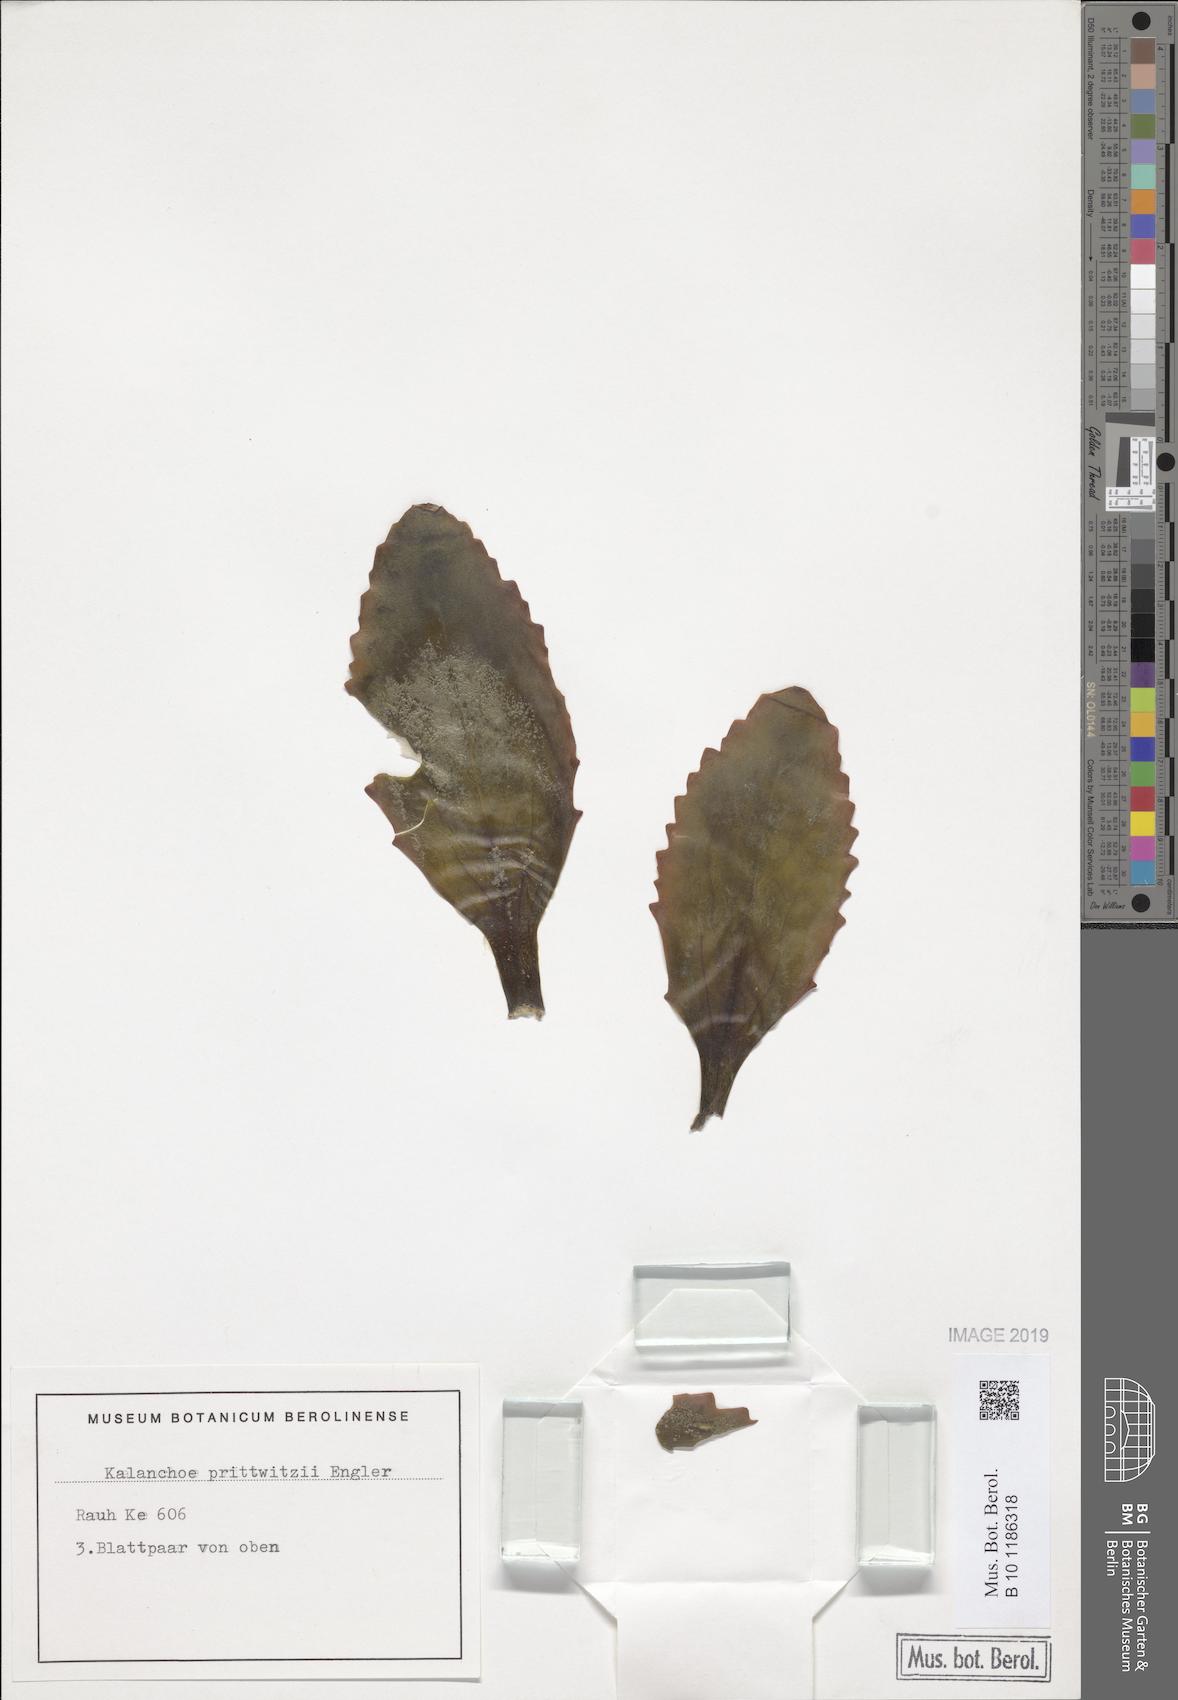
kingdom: Plantae
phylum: Tracheophyta
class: Magnoliopsida
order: Saxifragales
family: Crassulaceae
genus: Kalanchoe
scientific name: Kalanchoe prittwitzii
